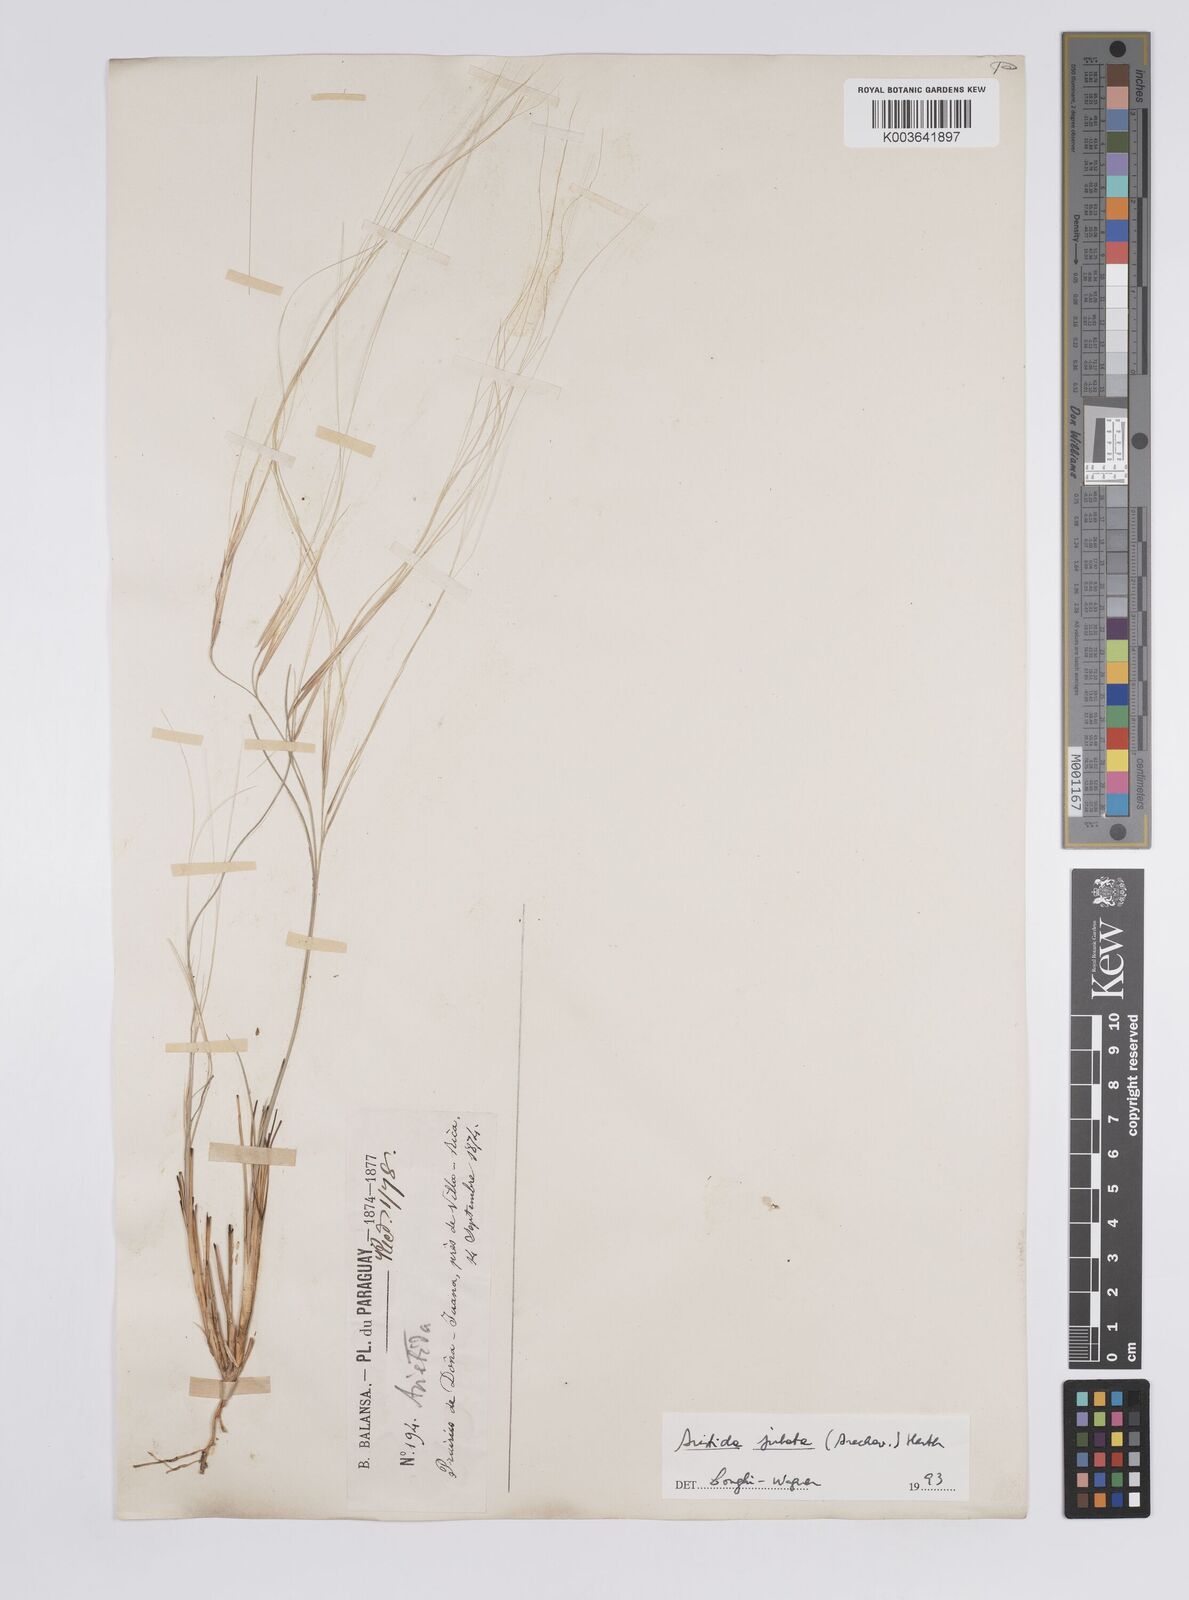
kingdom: Plantae
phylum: Tracheophyta
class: Liliopsida
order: Poales
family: Poaceae
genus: Aristida
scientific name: Aristida jubata
